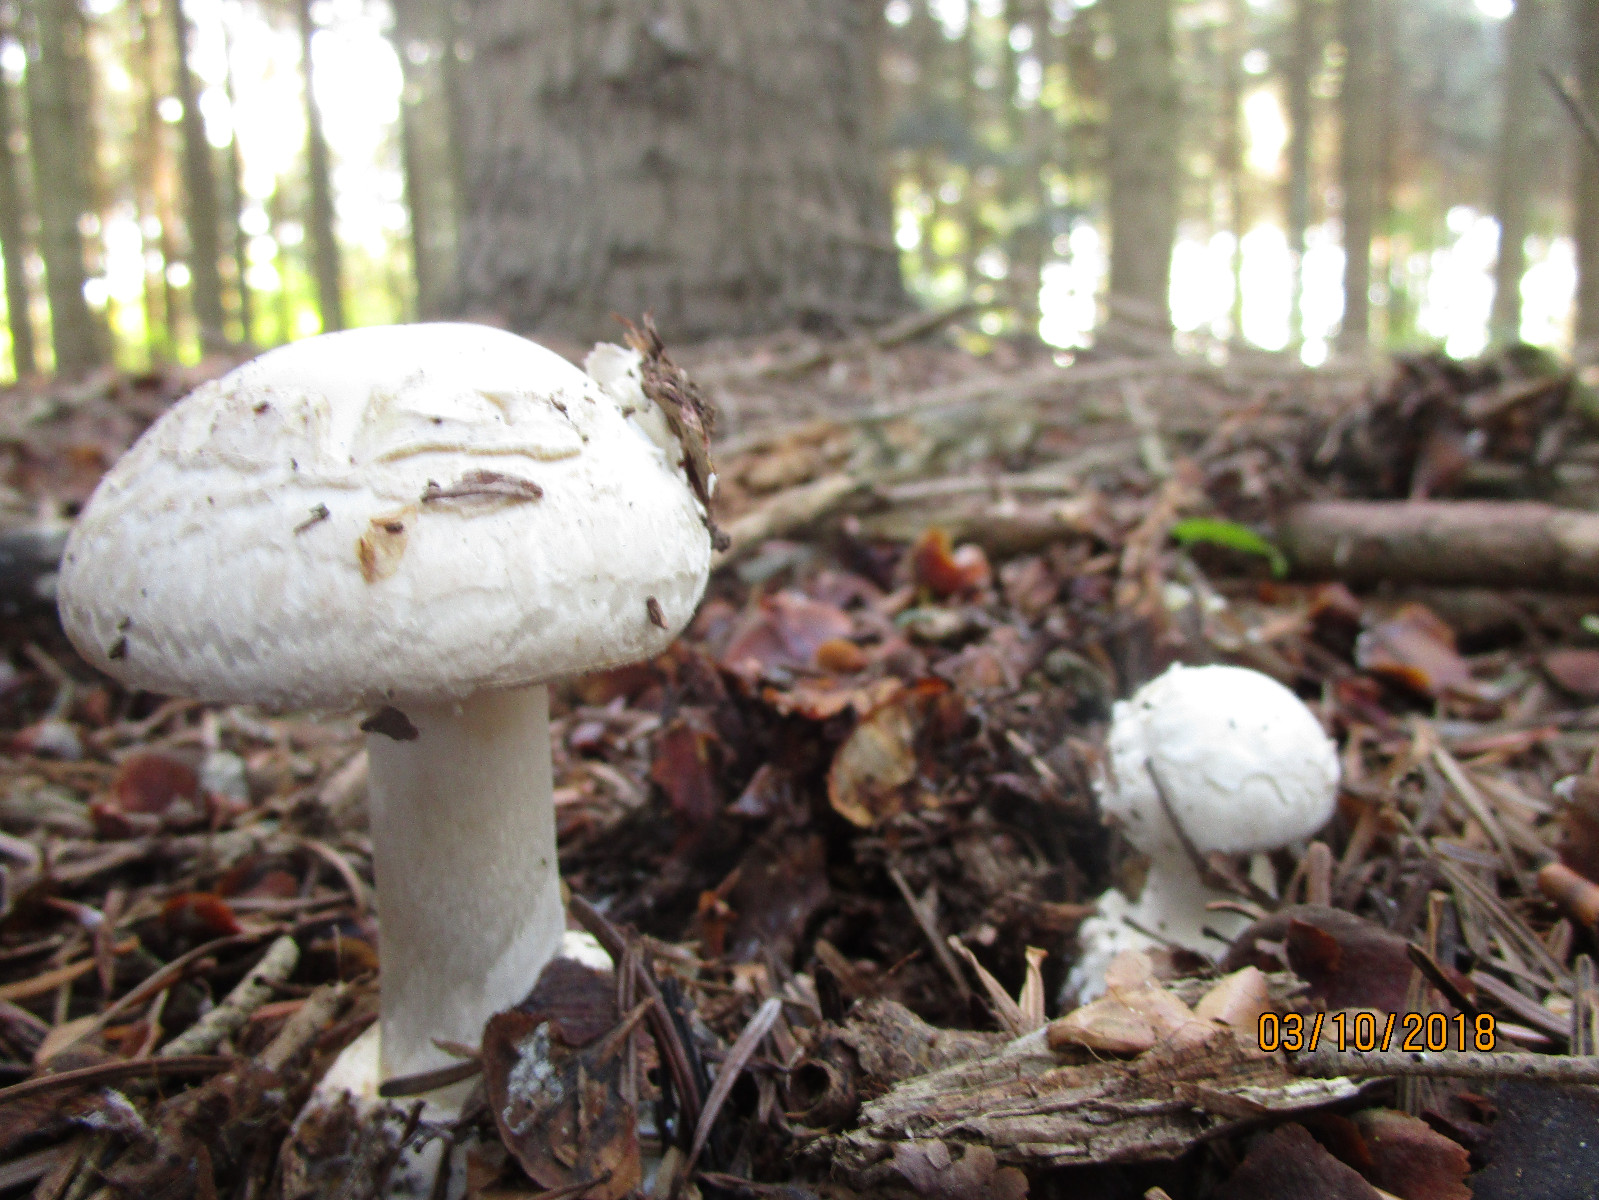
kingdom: Fungi
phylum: Basidiomycota
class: Agaricomycetes
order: Agaricales
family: Amanitaceae
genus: Amanita
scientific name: Amanita citrina
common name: False death-cap
